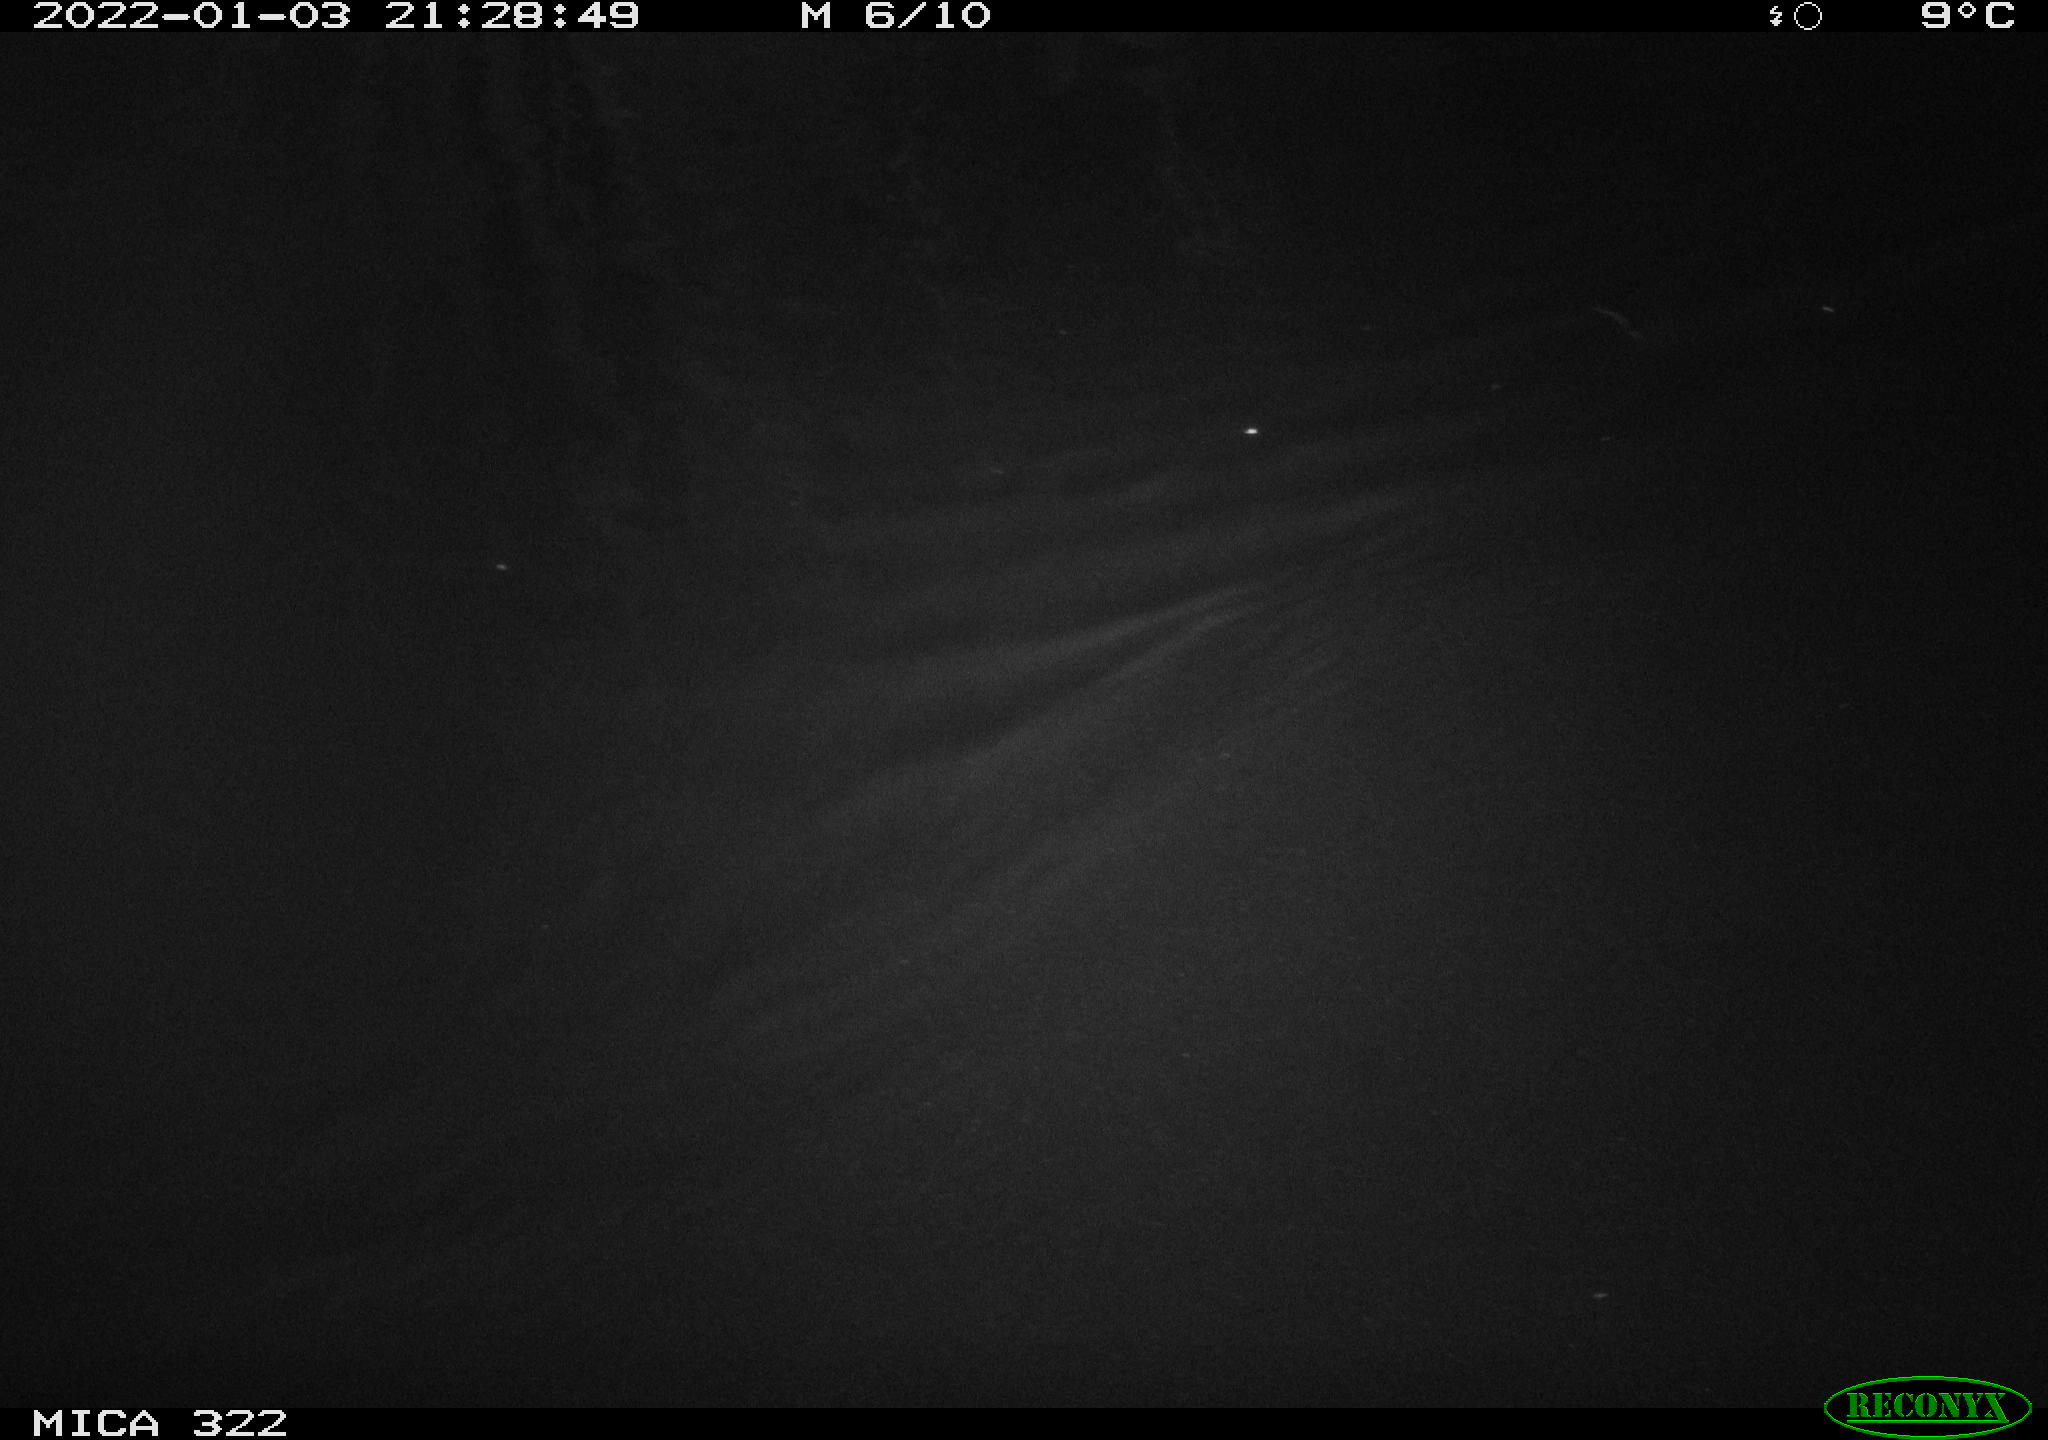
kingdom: Animalia
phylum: Chordata
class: Mammalia
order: Rodentia
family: Muridae
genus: Rattus
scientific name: Rattus norvegicus
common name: Brown rat
